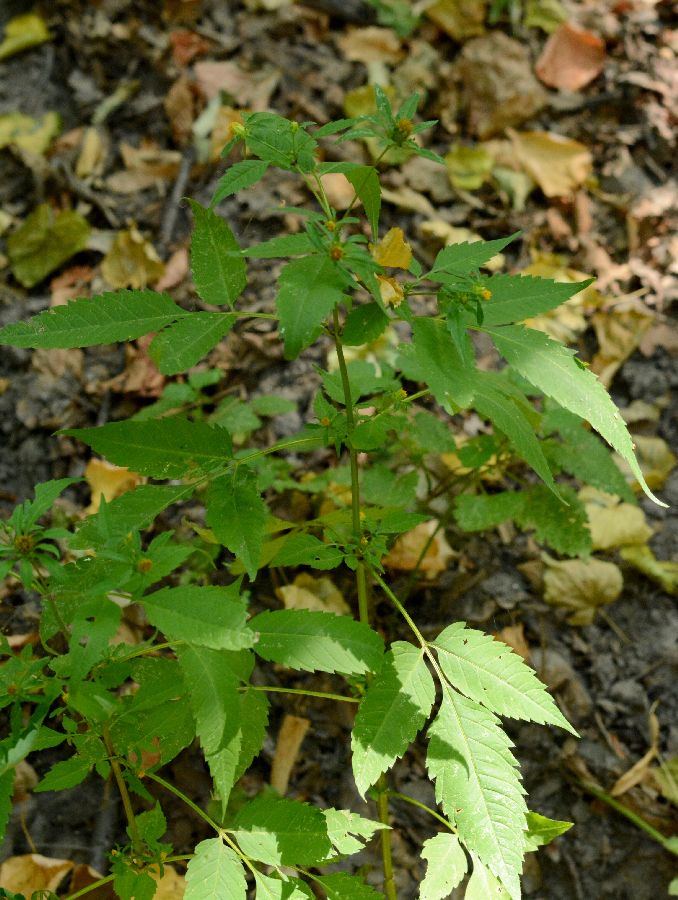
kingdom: Plantae
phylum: Tracheophyta
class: Magnoliopsida
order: Asterales
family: Asteraceae
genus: Bidens
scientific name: Bidens frondosa
